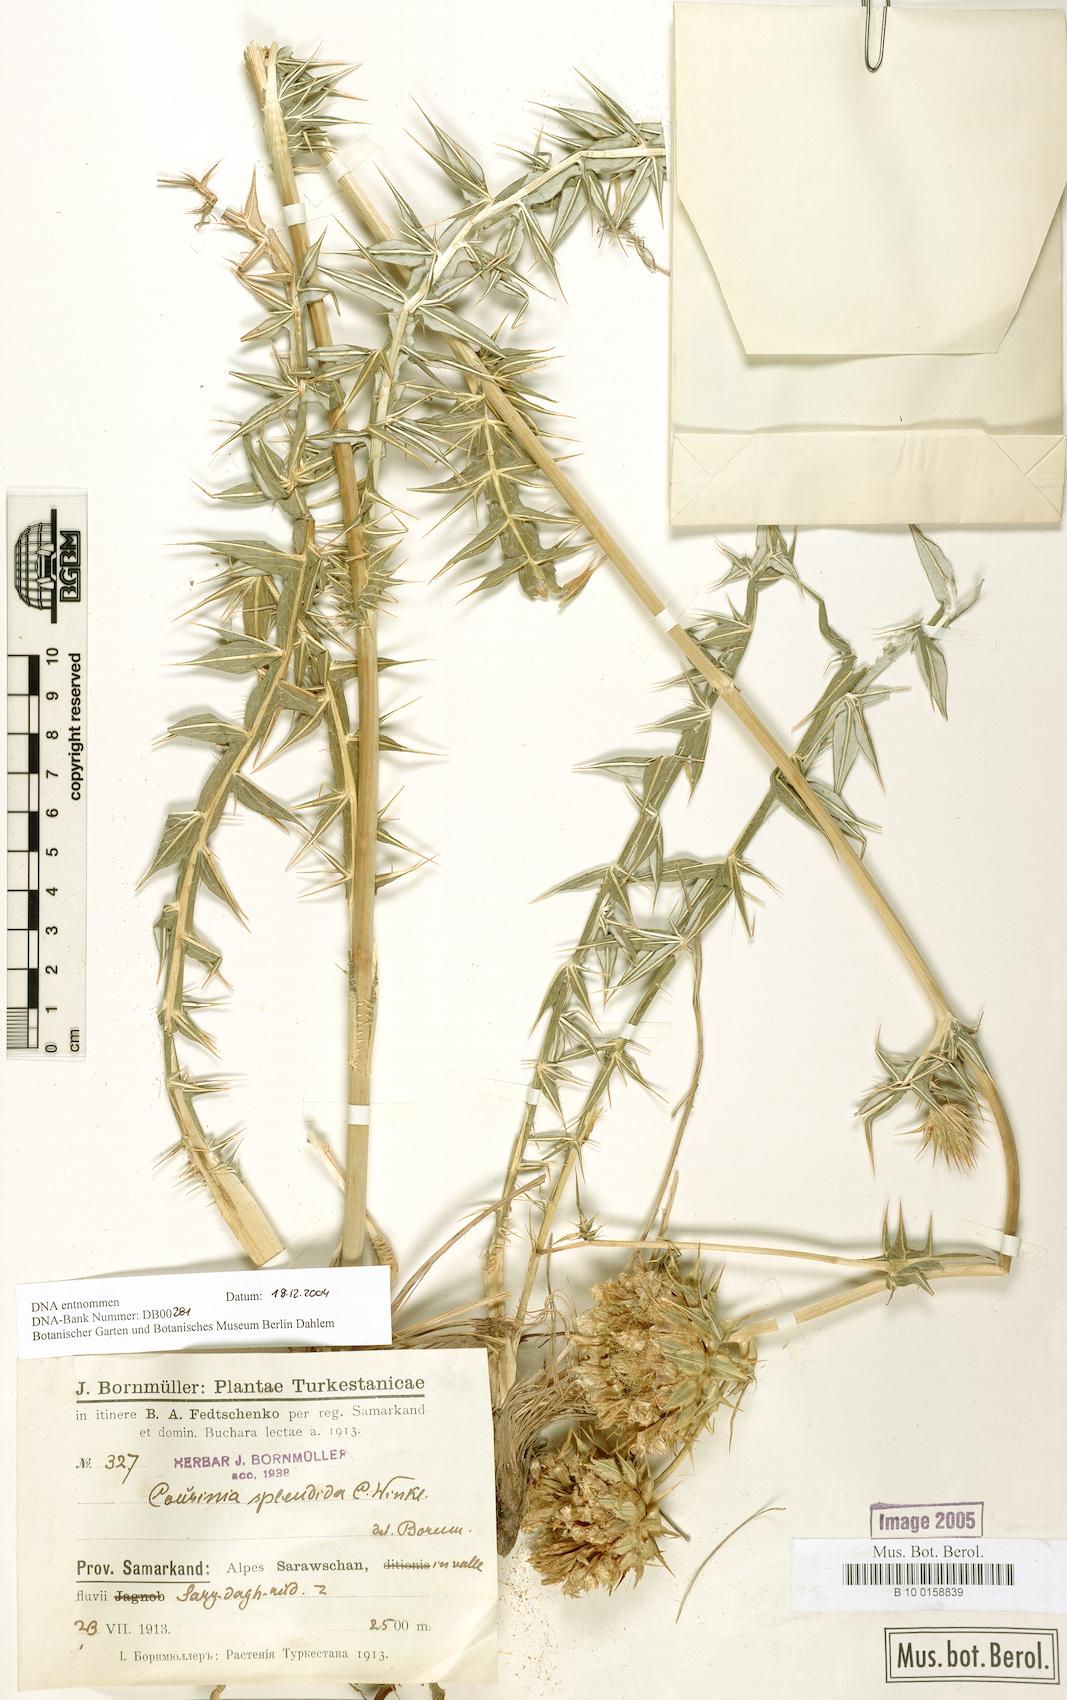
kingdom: Plantae
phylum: Tracheophyta
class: Magnoliopsida
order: Asterales
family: Asteraceae
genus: Cousinia
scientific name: Cousinia splendida
